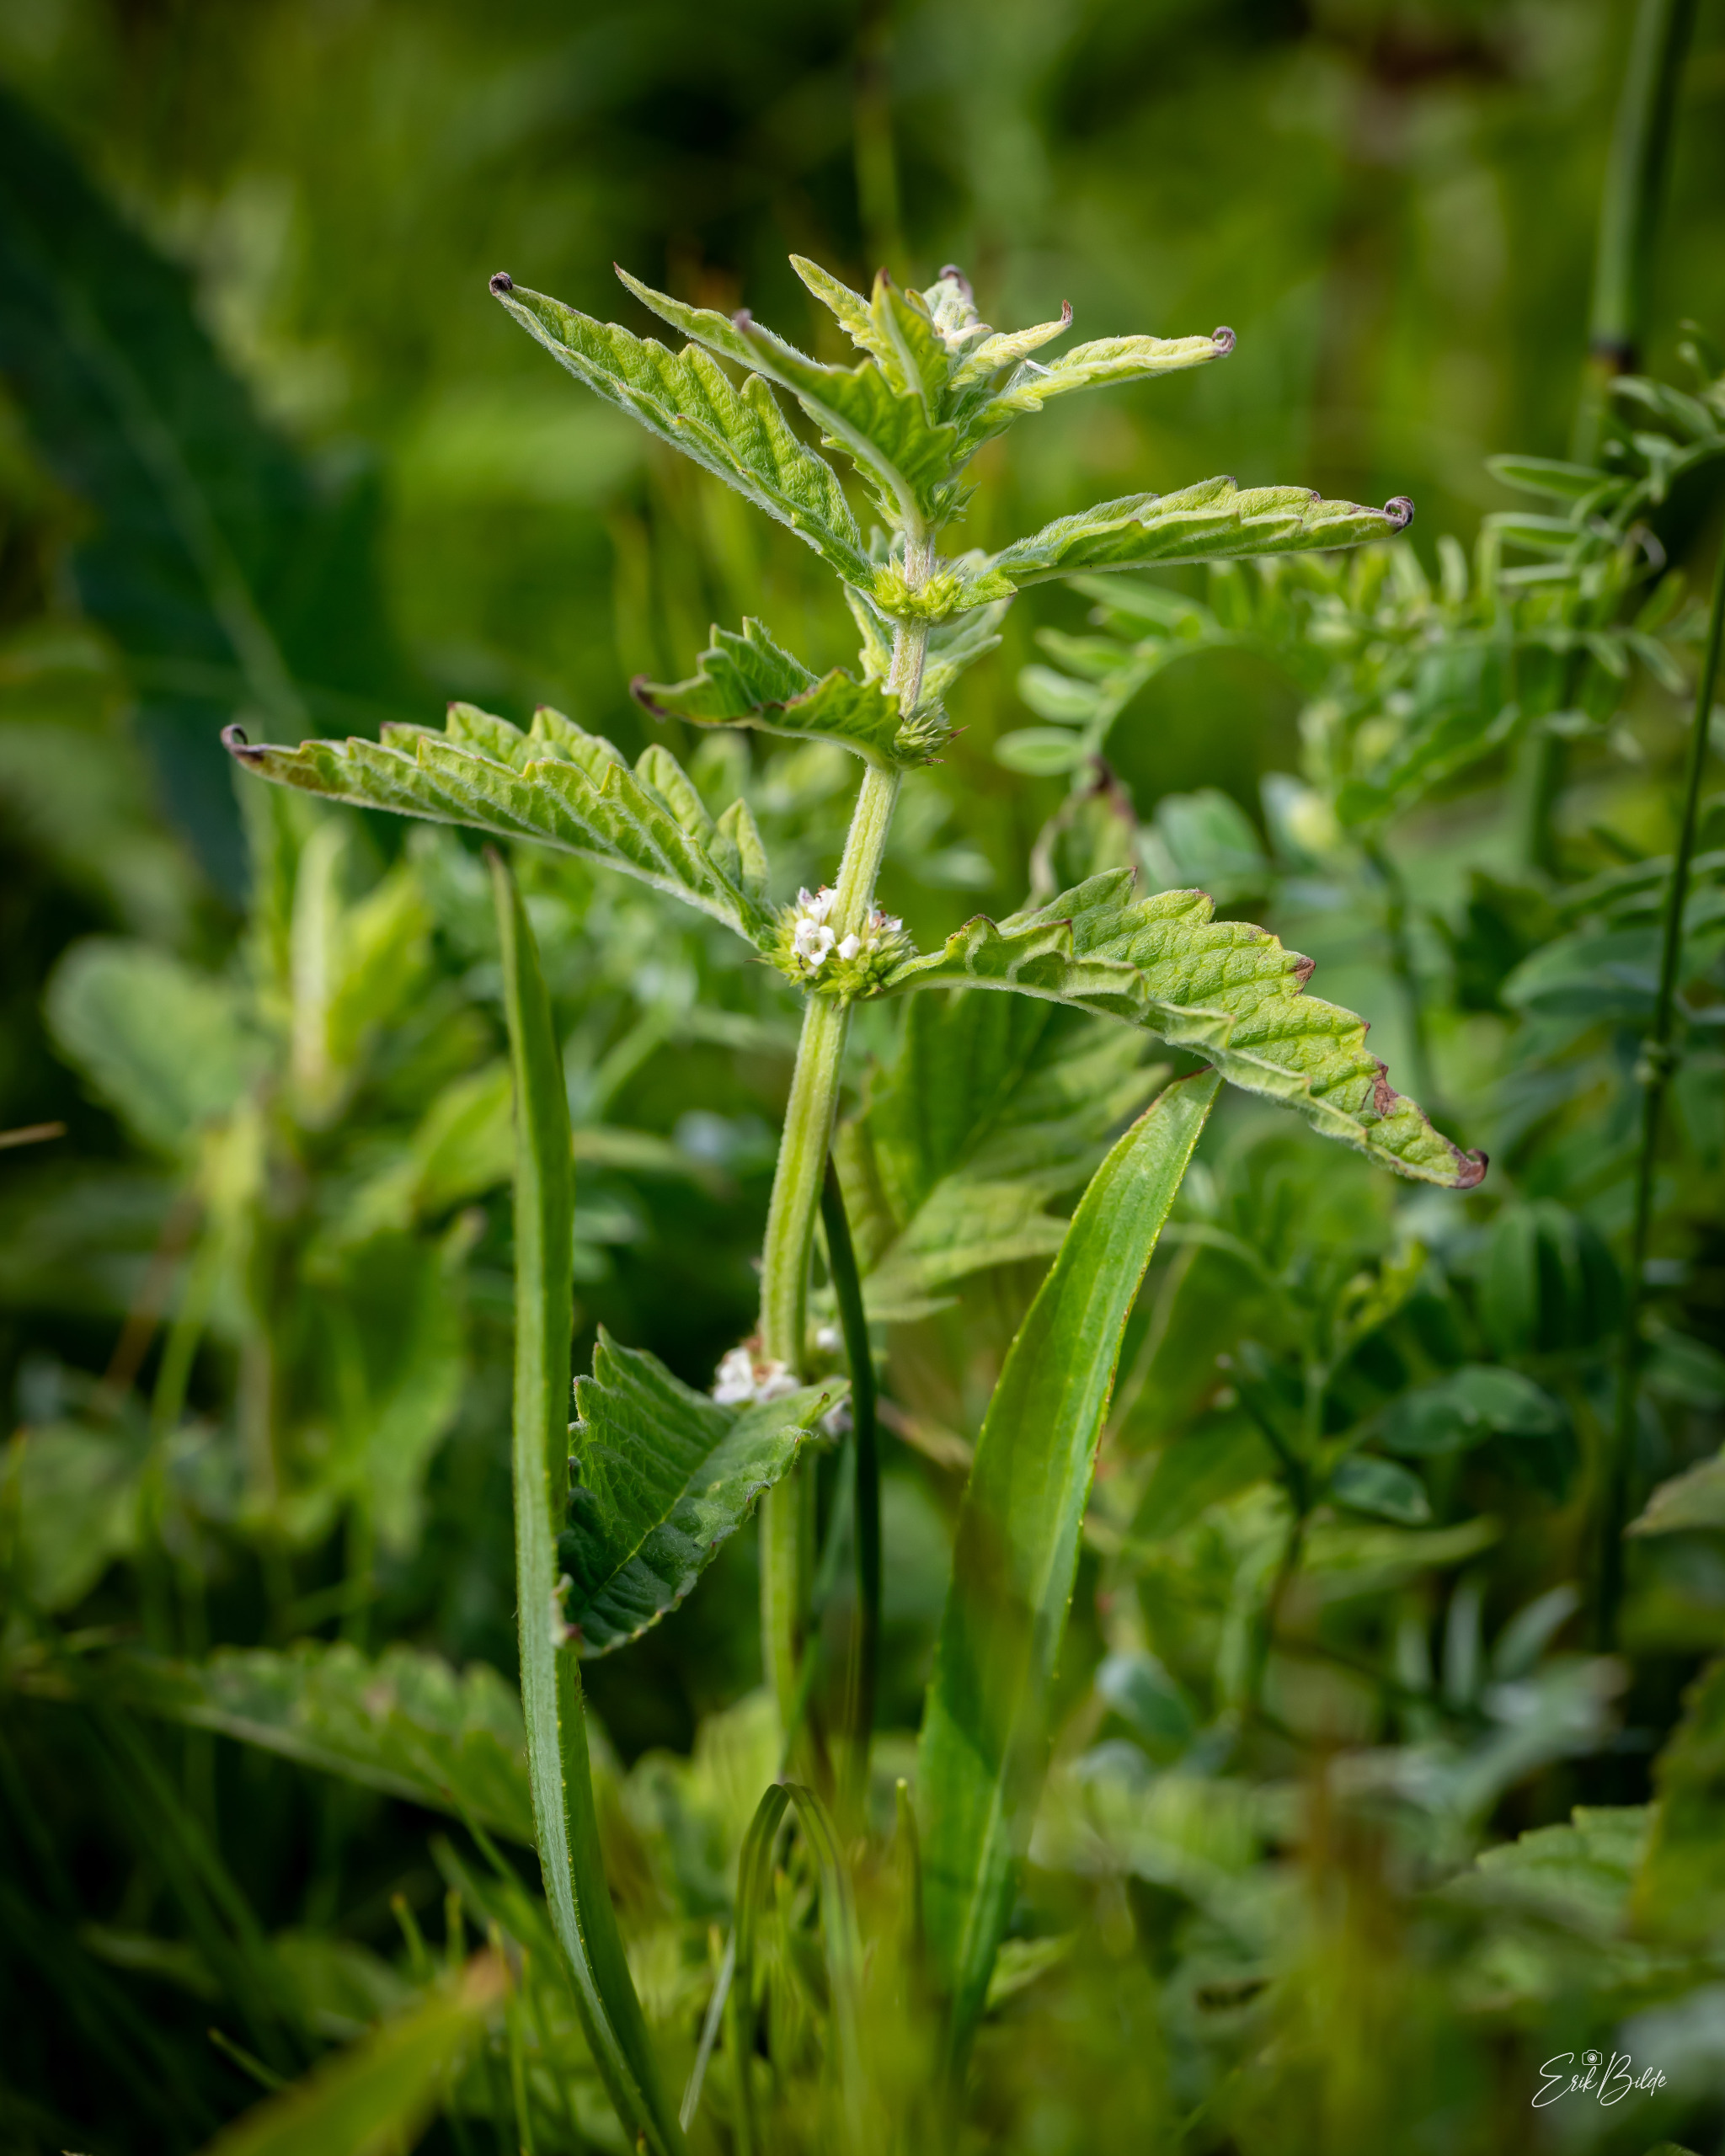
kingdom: Plantae
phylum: Tracheophyta
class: Magnoliopsida
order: Lamiales
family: Lamiaceae
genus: Lycopus
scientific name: Lycopus europaeus
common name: Sværtevæld
